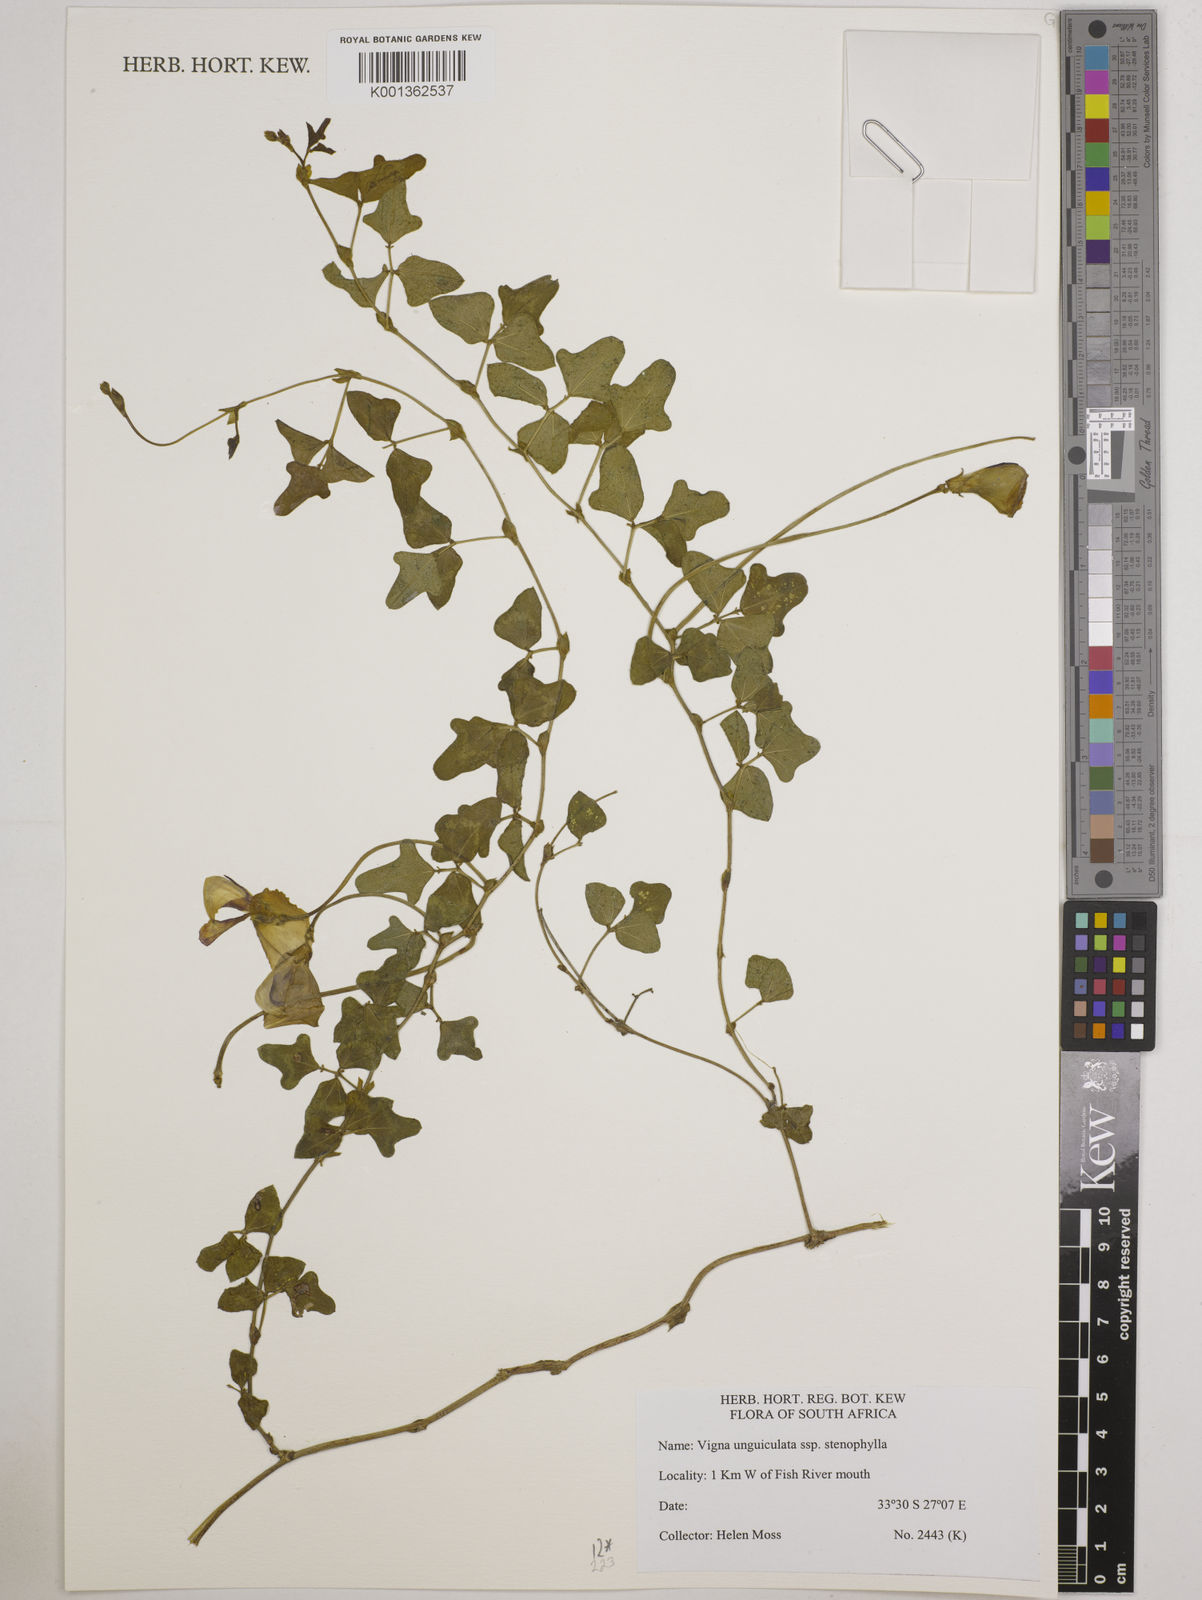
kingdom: Plantae
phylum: Tracheophyta
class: Magnoliopsida
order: Fabales
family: Fabaceae
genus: Vigna
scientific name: Vigna
